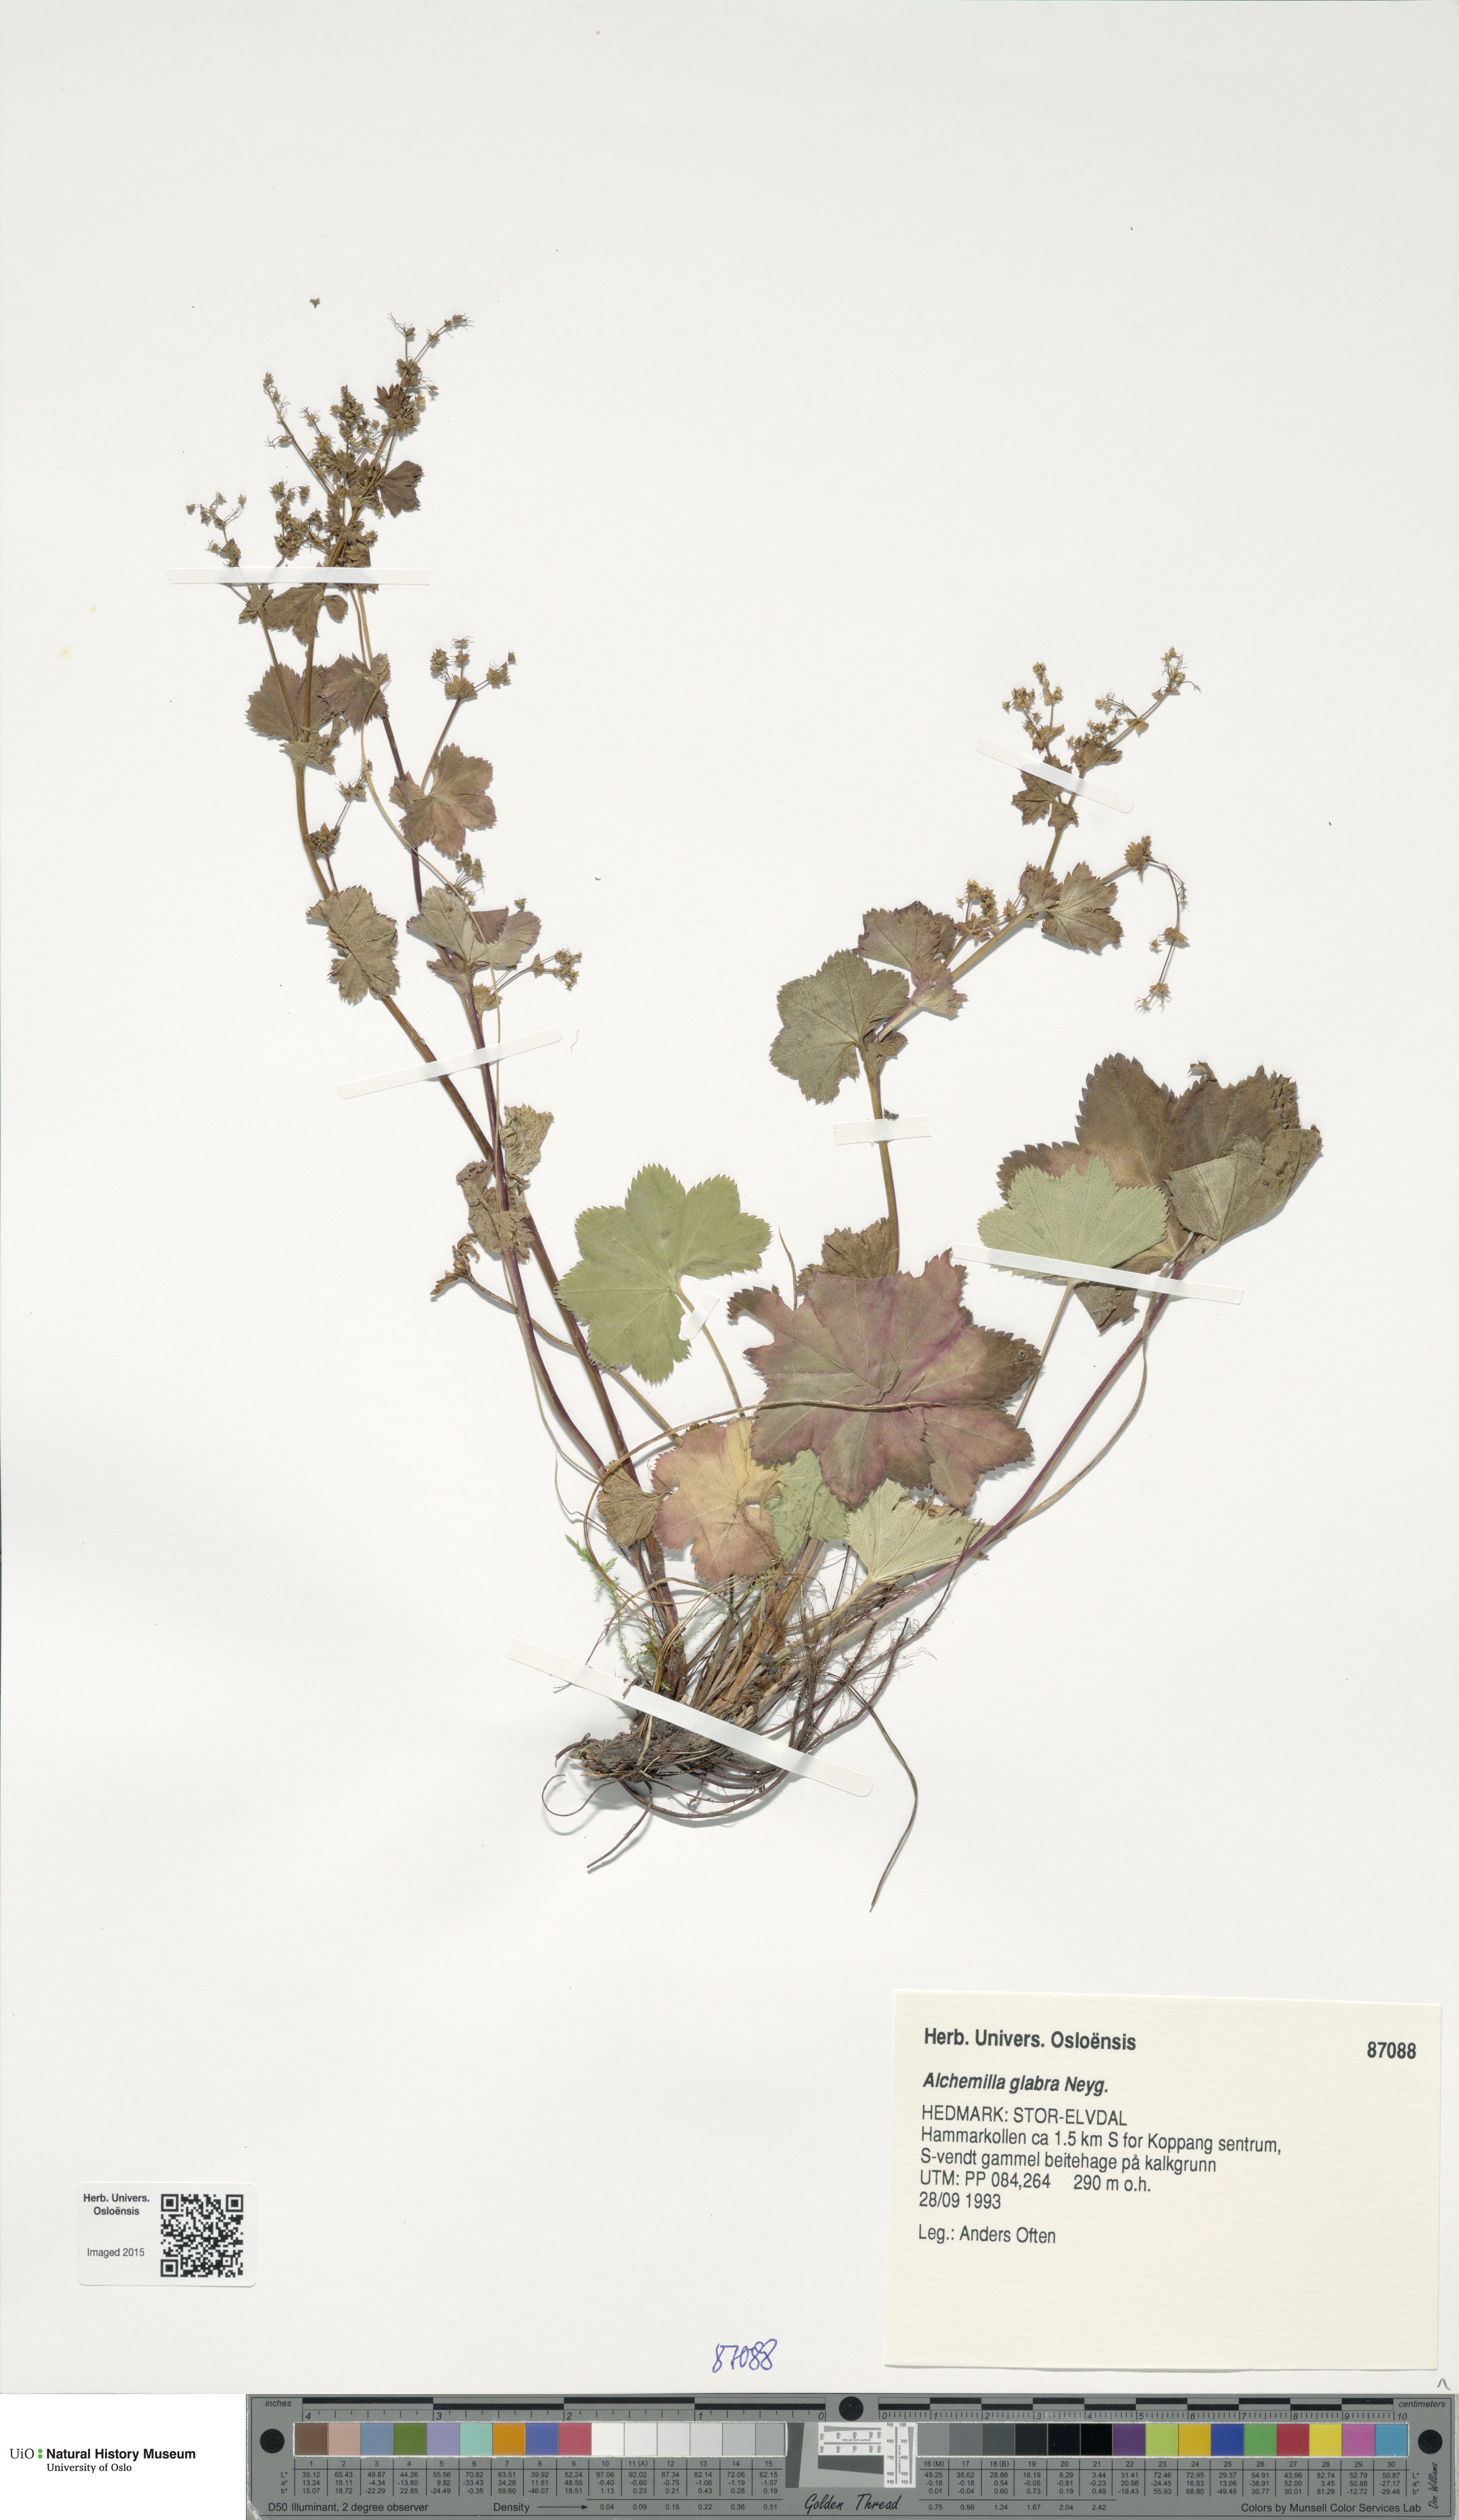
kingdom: Plantae
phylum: Tracheophyta
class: Magnoliopsida
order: Rosales
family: Rosaceae
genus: Alchemilla
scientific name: Alchemilla glabra
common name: Smooth lady's-mantle
